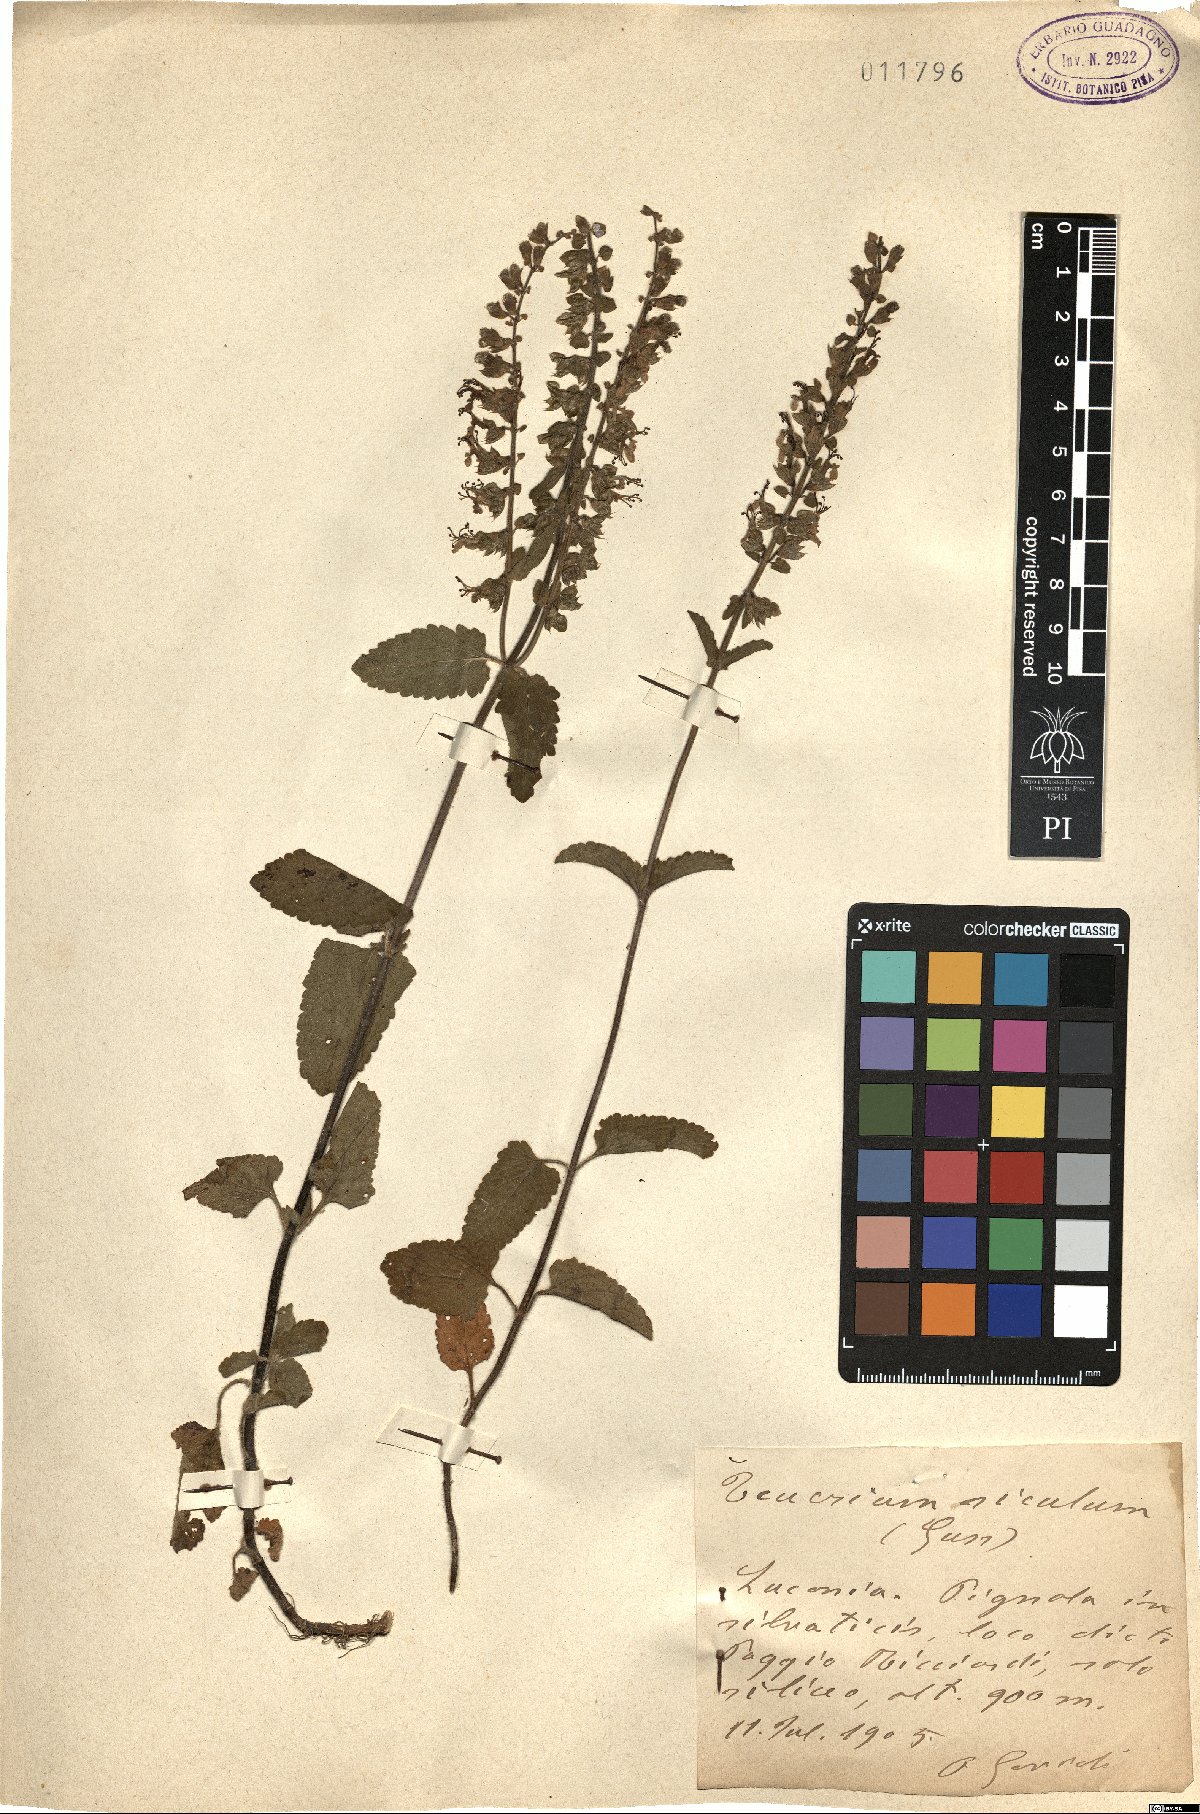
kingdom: Plantae
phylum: Tracheophyta
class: Magnoliopsida
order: Lamiales
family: Lamiaceae
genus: Teucrium
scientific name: Teucrium siculum
